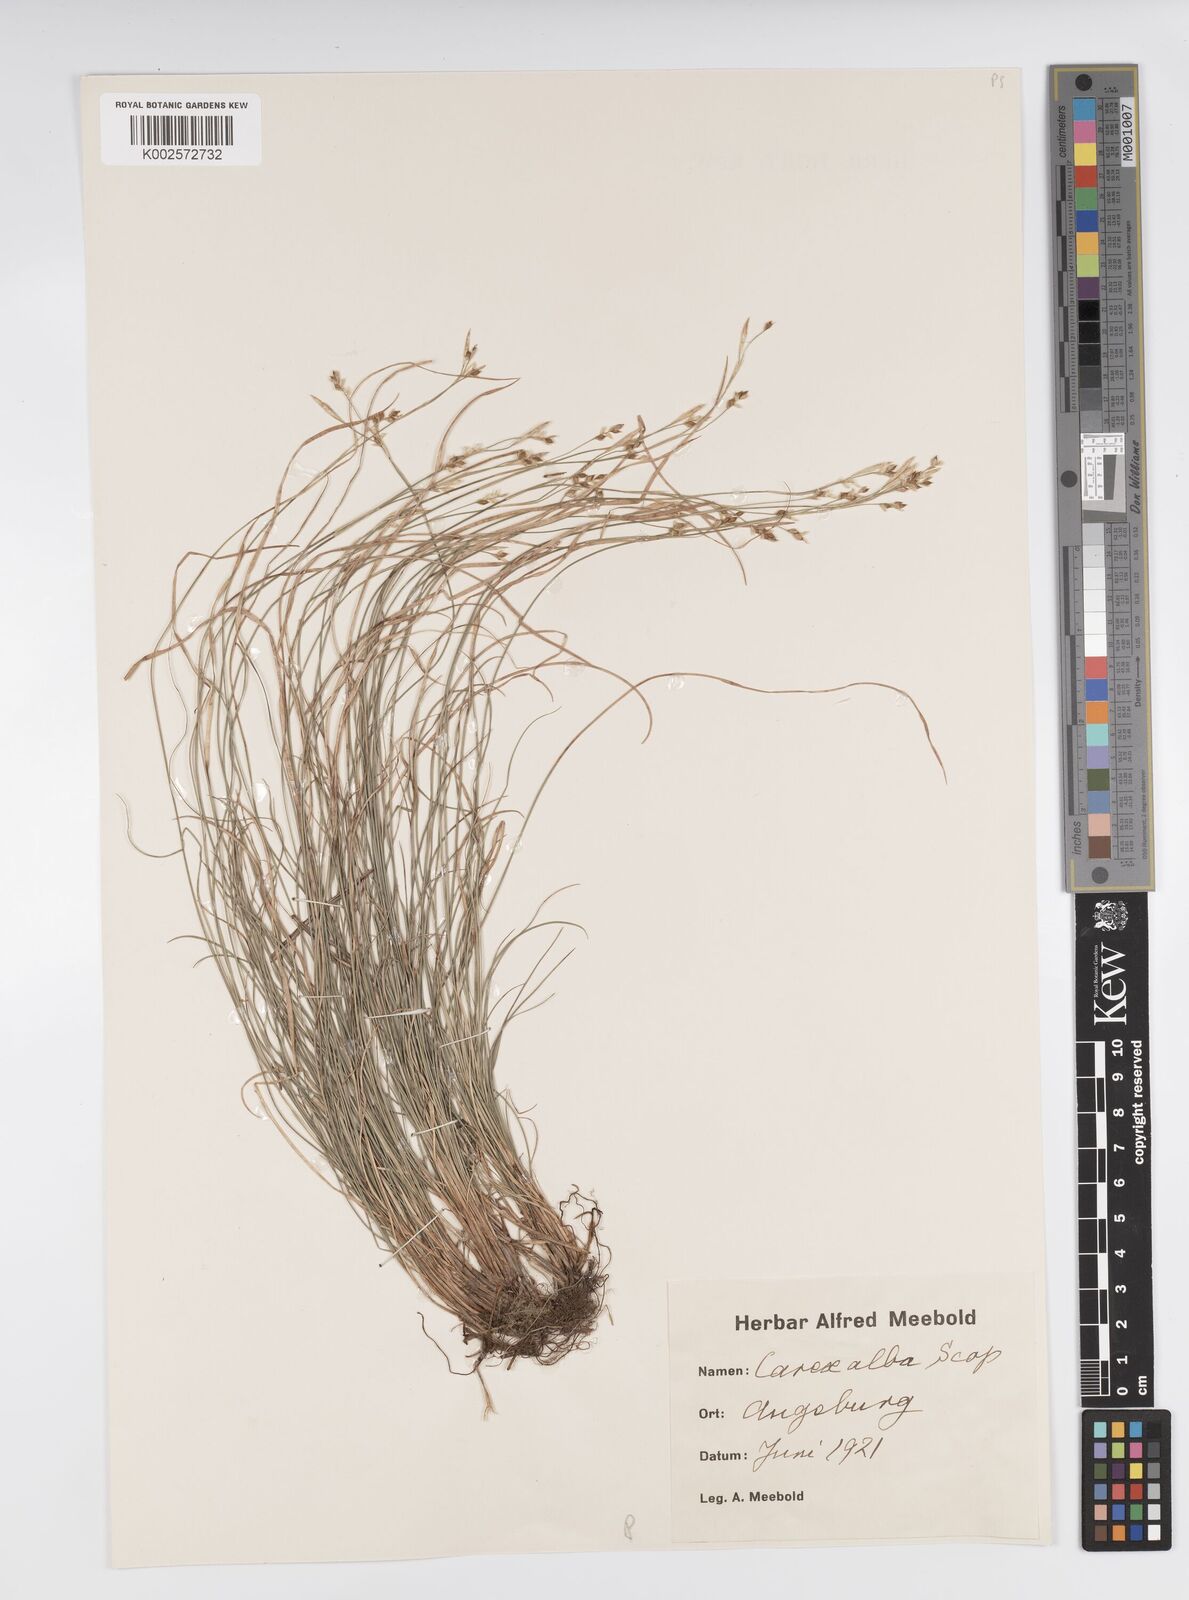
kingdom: Plantae
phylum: Tracheophyta
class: Liliopsida
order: Poales
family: Cyperaceae
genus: Carex
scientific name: Carex alba
